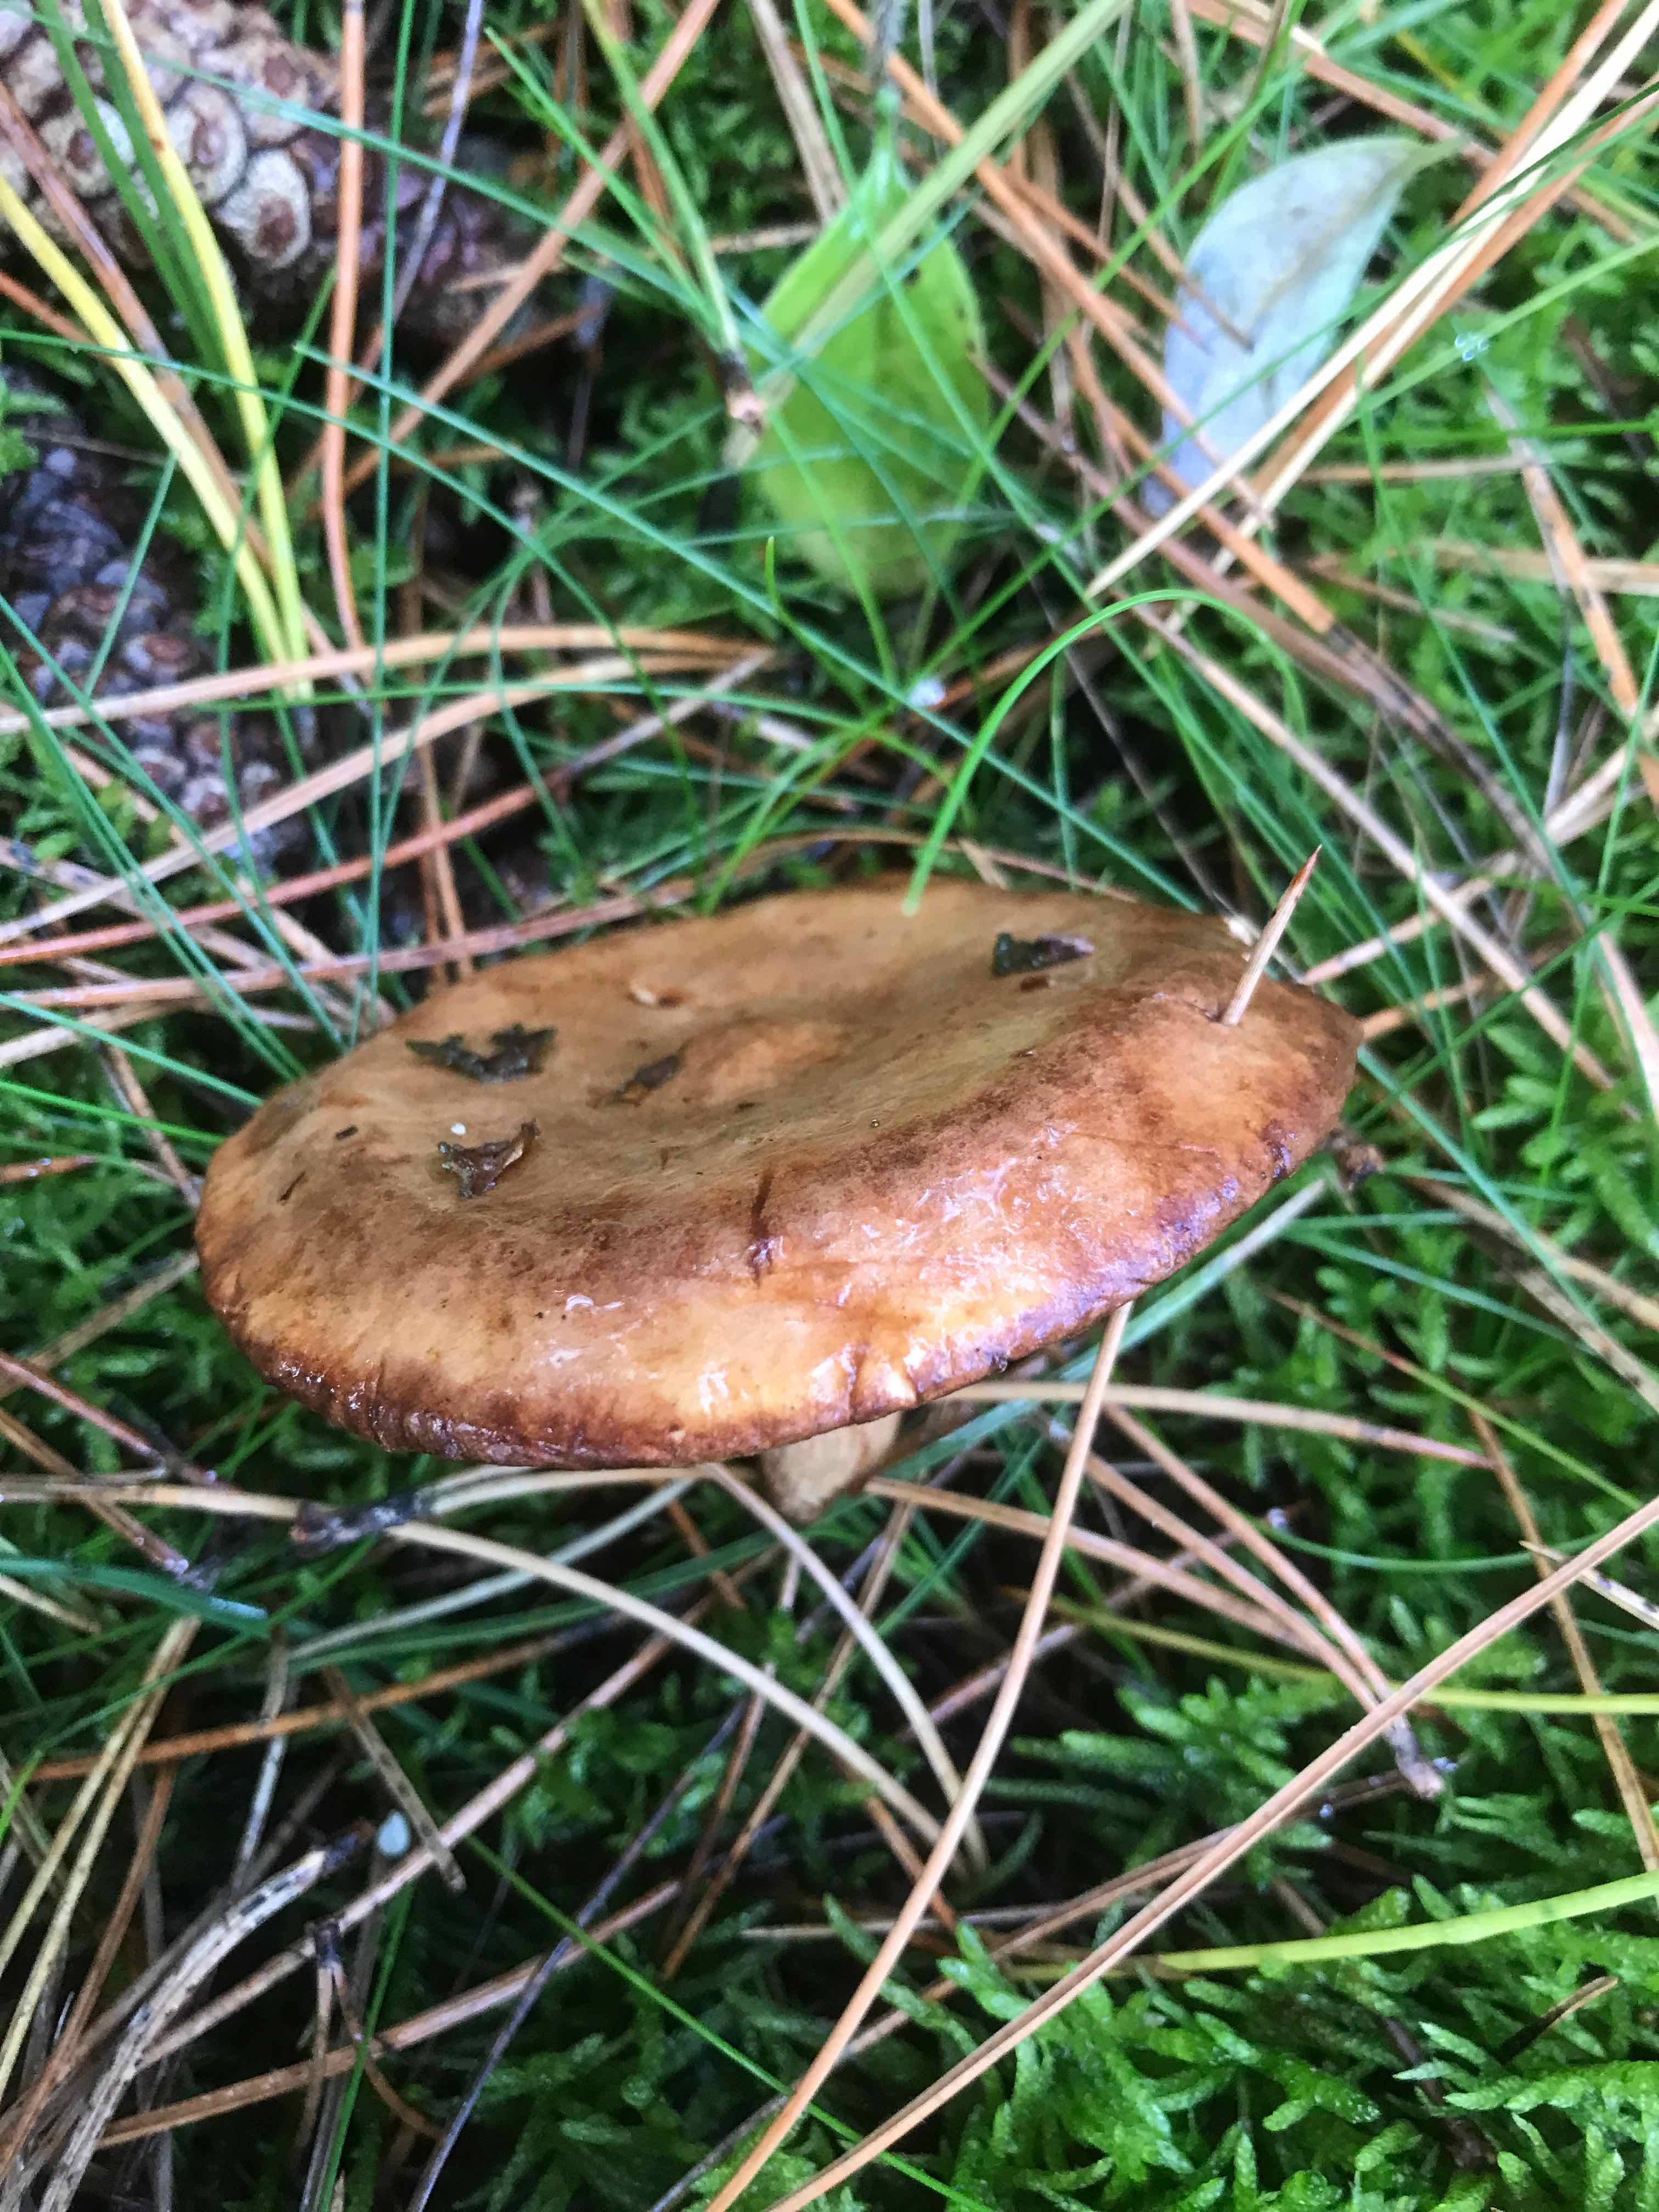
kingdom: Fungi
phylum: Basidiomycota
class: Agaricomycetes
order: Boletales
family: Paxillaceae
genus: Paxillus
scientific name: Paxillus involutus
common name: almindelig netbladhat
